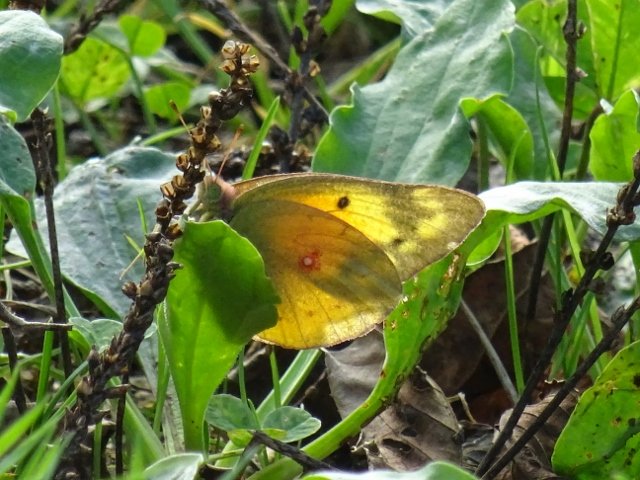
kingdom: Animalia
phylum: Arthropoda
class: Insecta
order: Lepidoptera
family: Pieridae
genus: Colias
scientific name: Colias eurytheme
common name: Orange Sulphur
